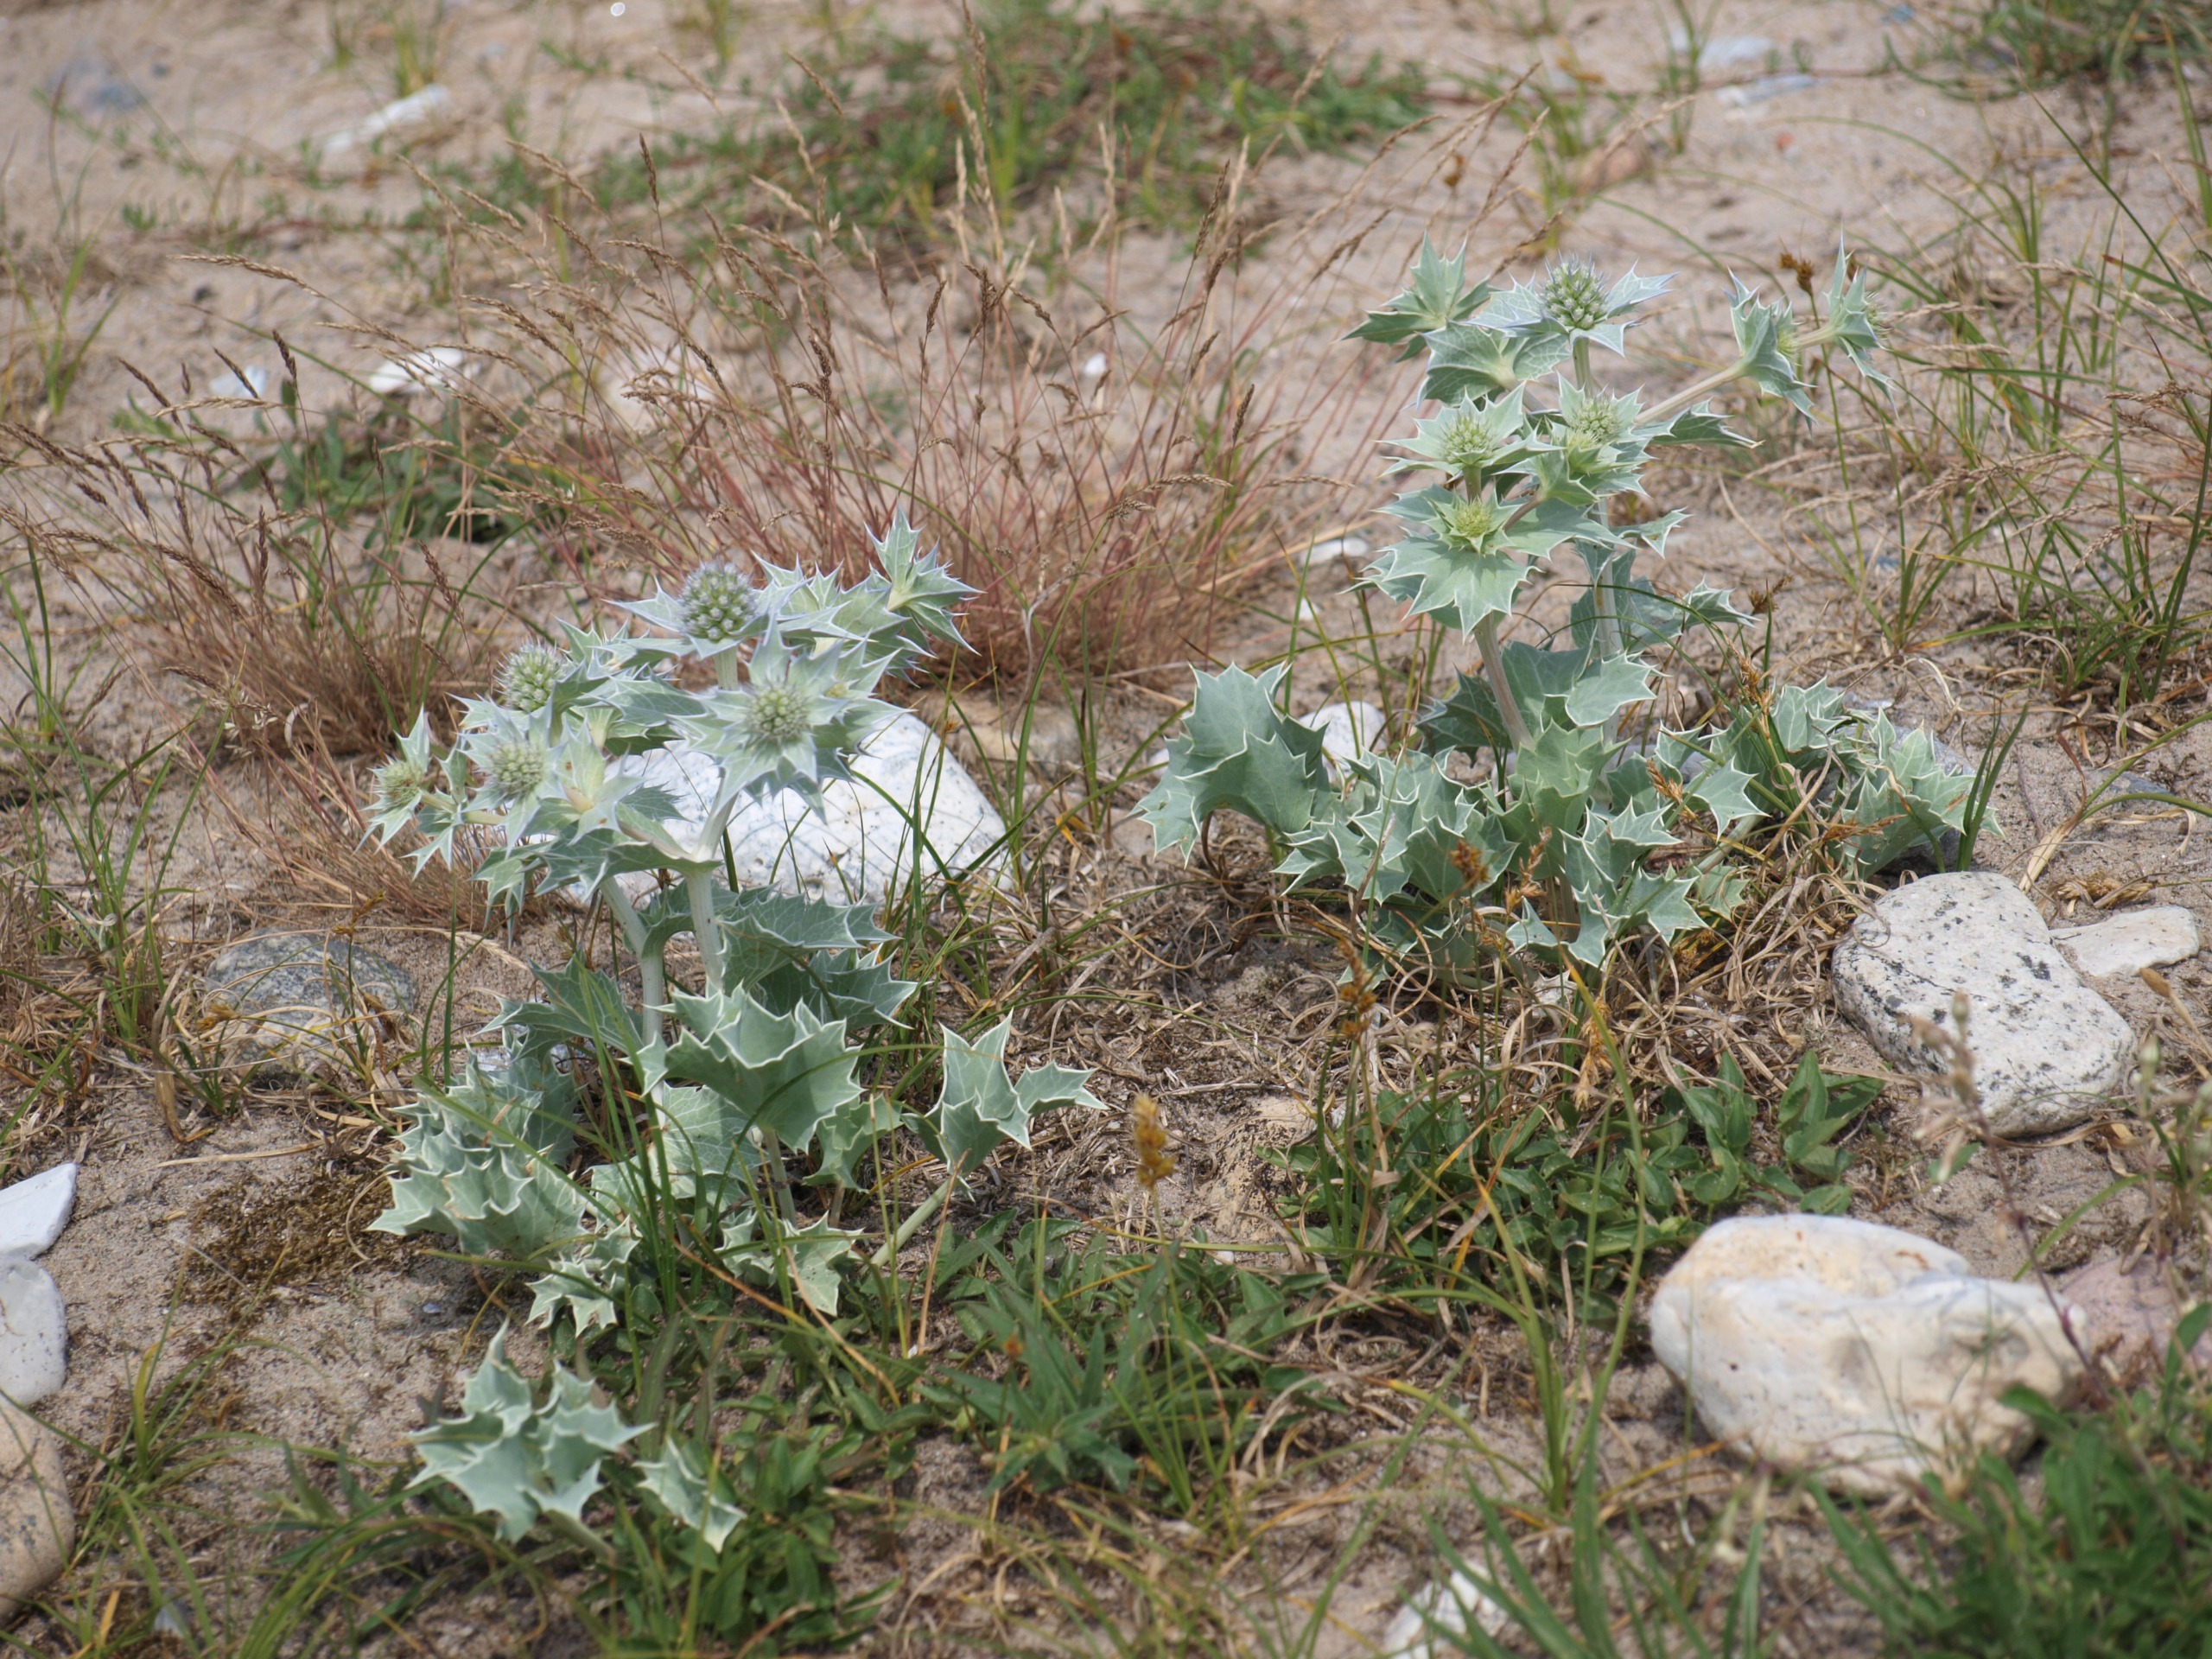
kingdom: Plantae
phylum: Tracheophyta
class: Magnoliopsida
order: Apiales
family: Apiaceae
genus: Eryngium
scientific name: Eryngium maritimum
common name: Strand-mandstro
